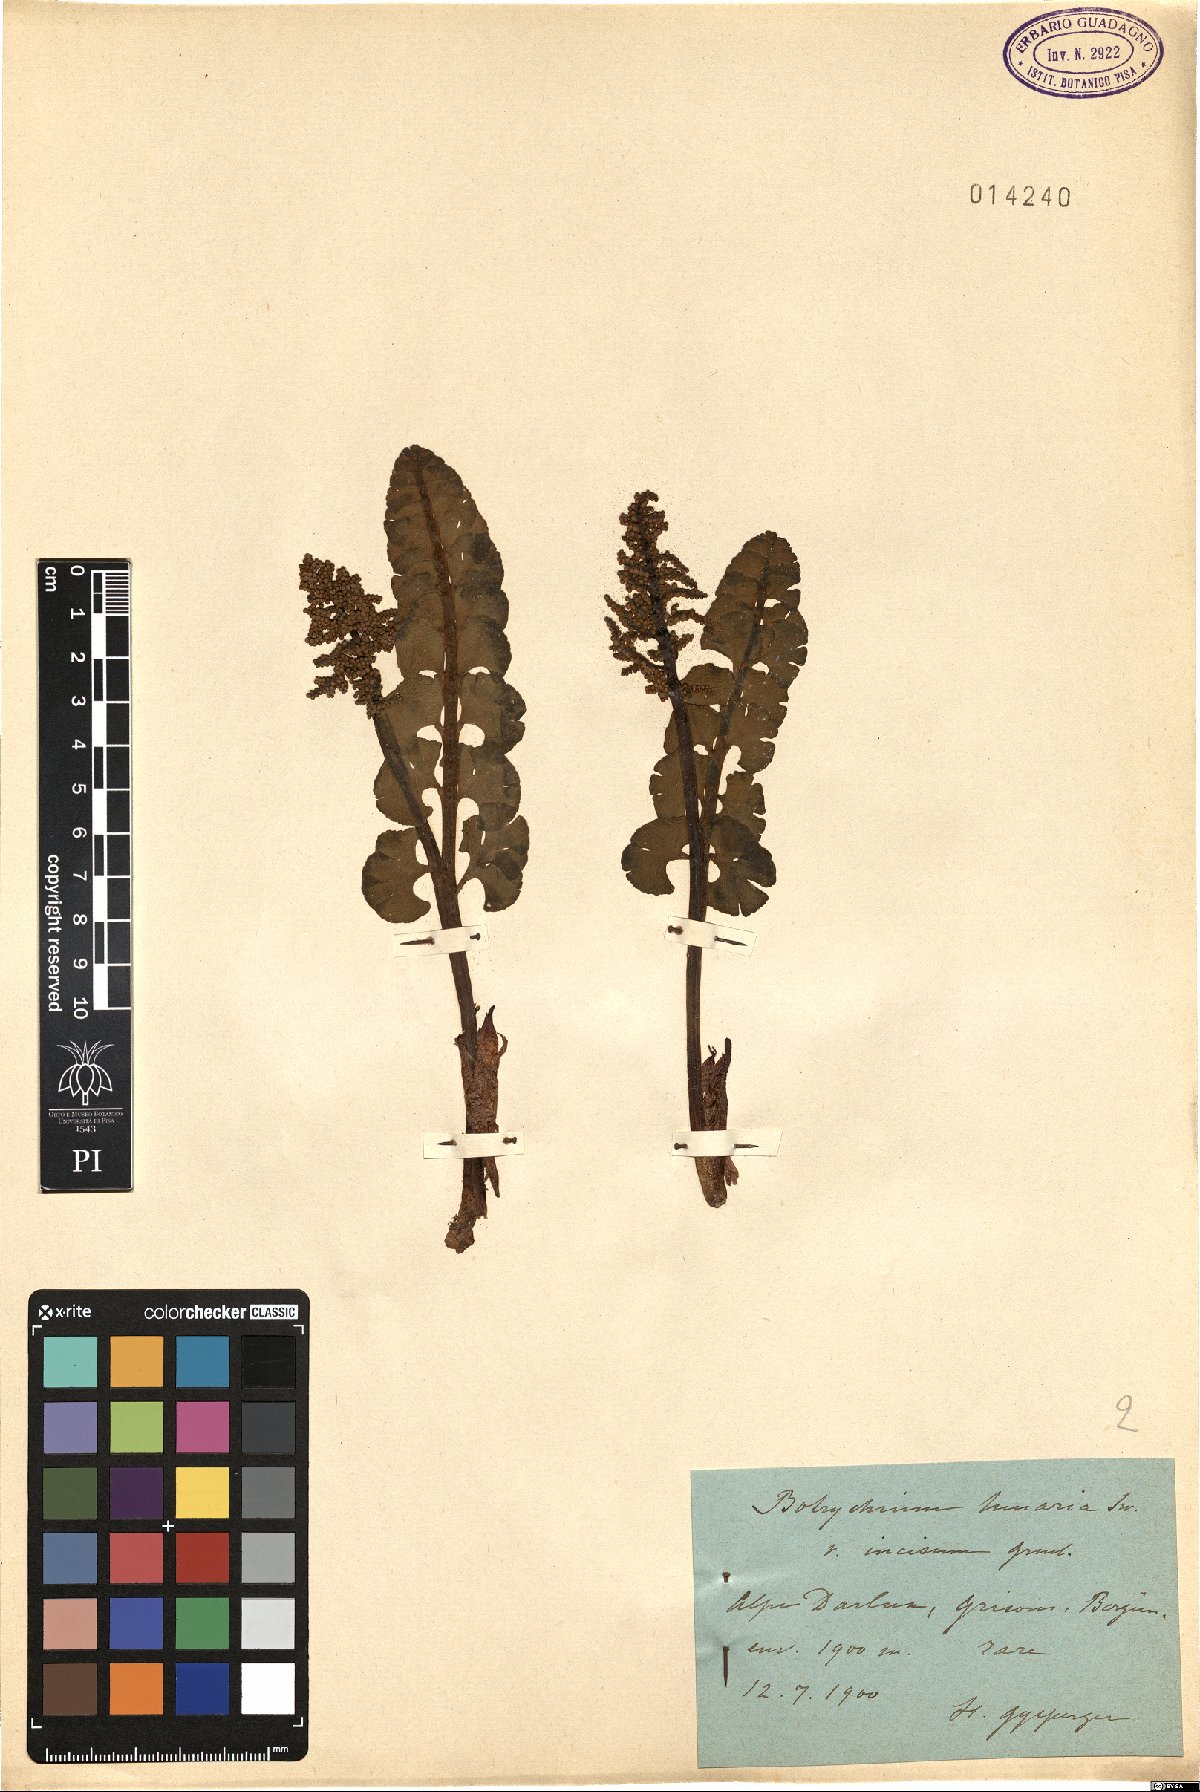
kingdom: Plantae
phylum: Tracheophyta
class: Polypodiopsida
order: Ophioglossales
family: Ophioglossaceae
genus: Botrychium
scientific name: Botrychium lunaria
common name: Moonwort
